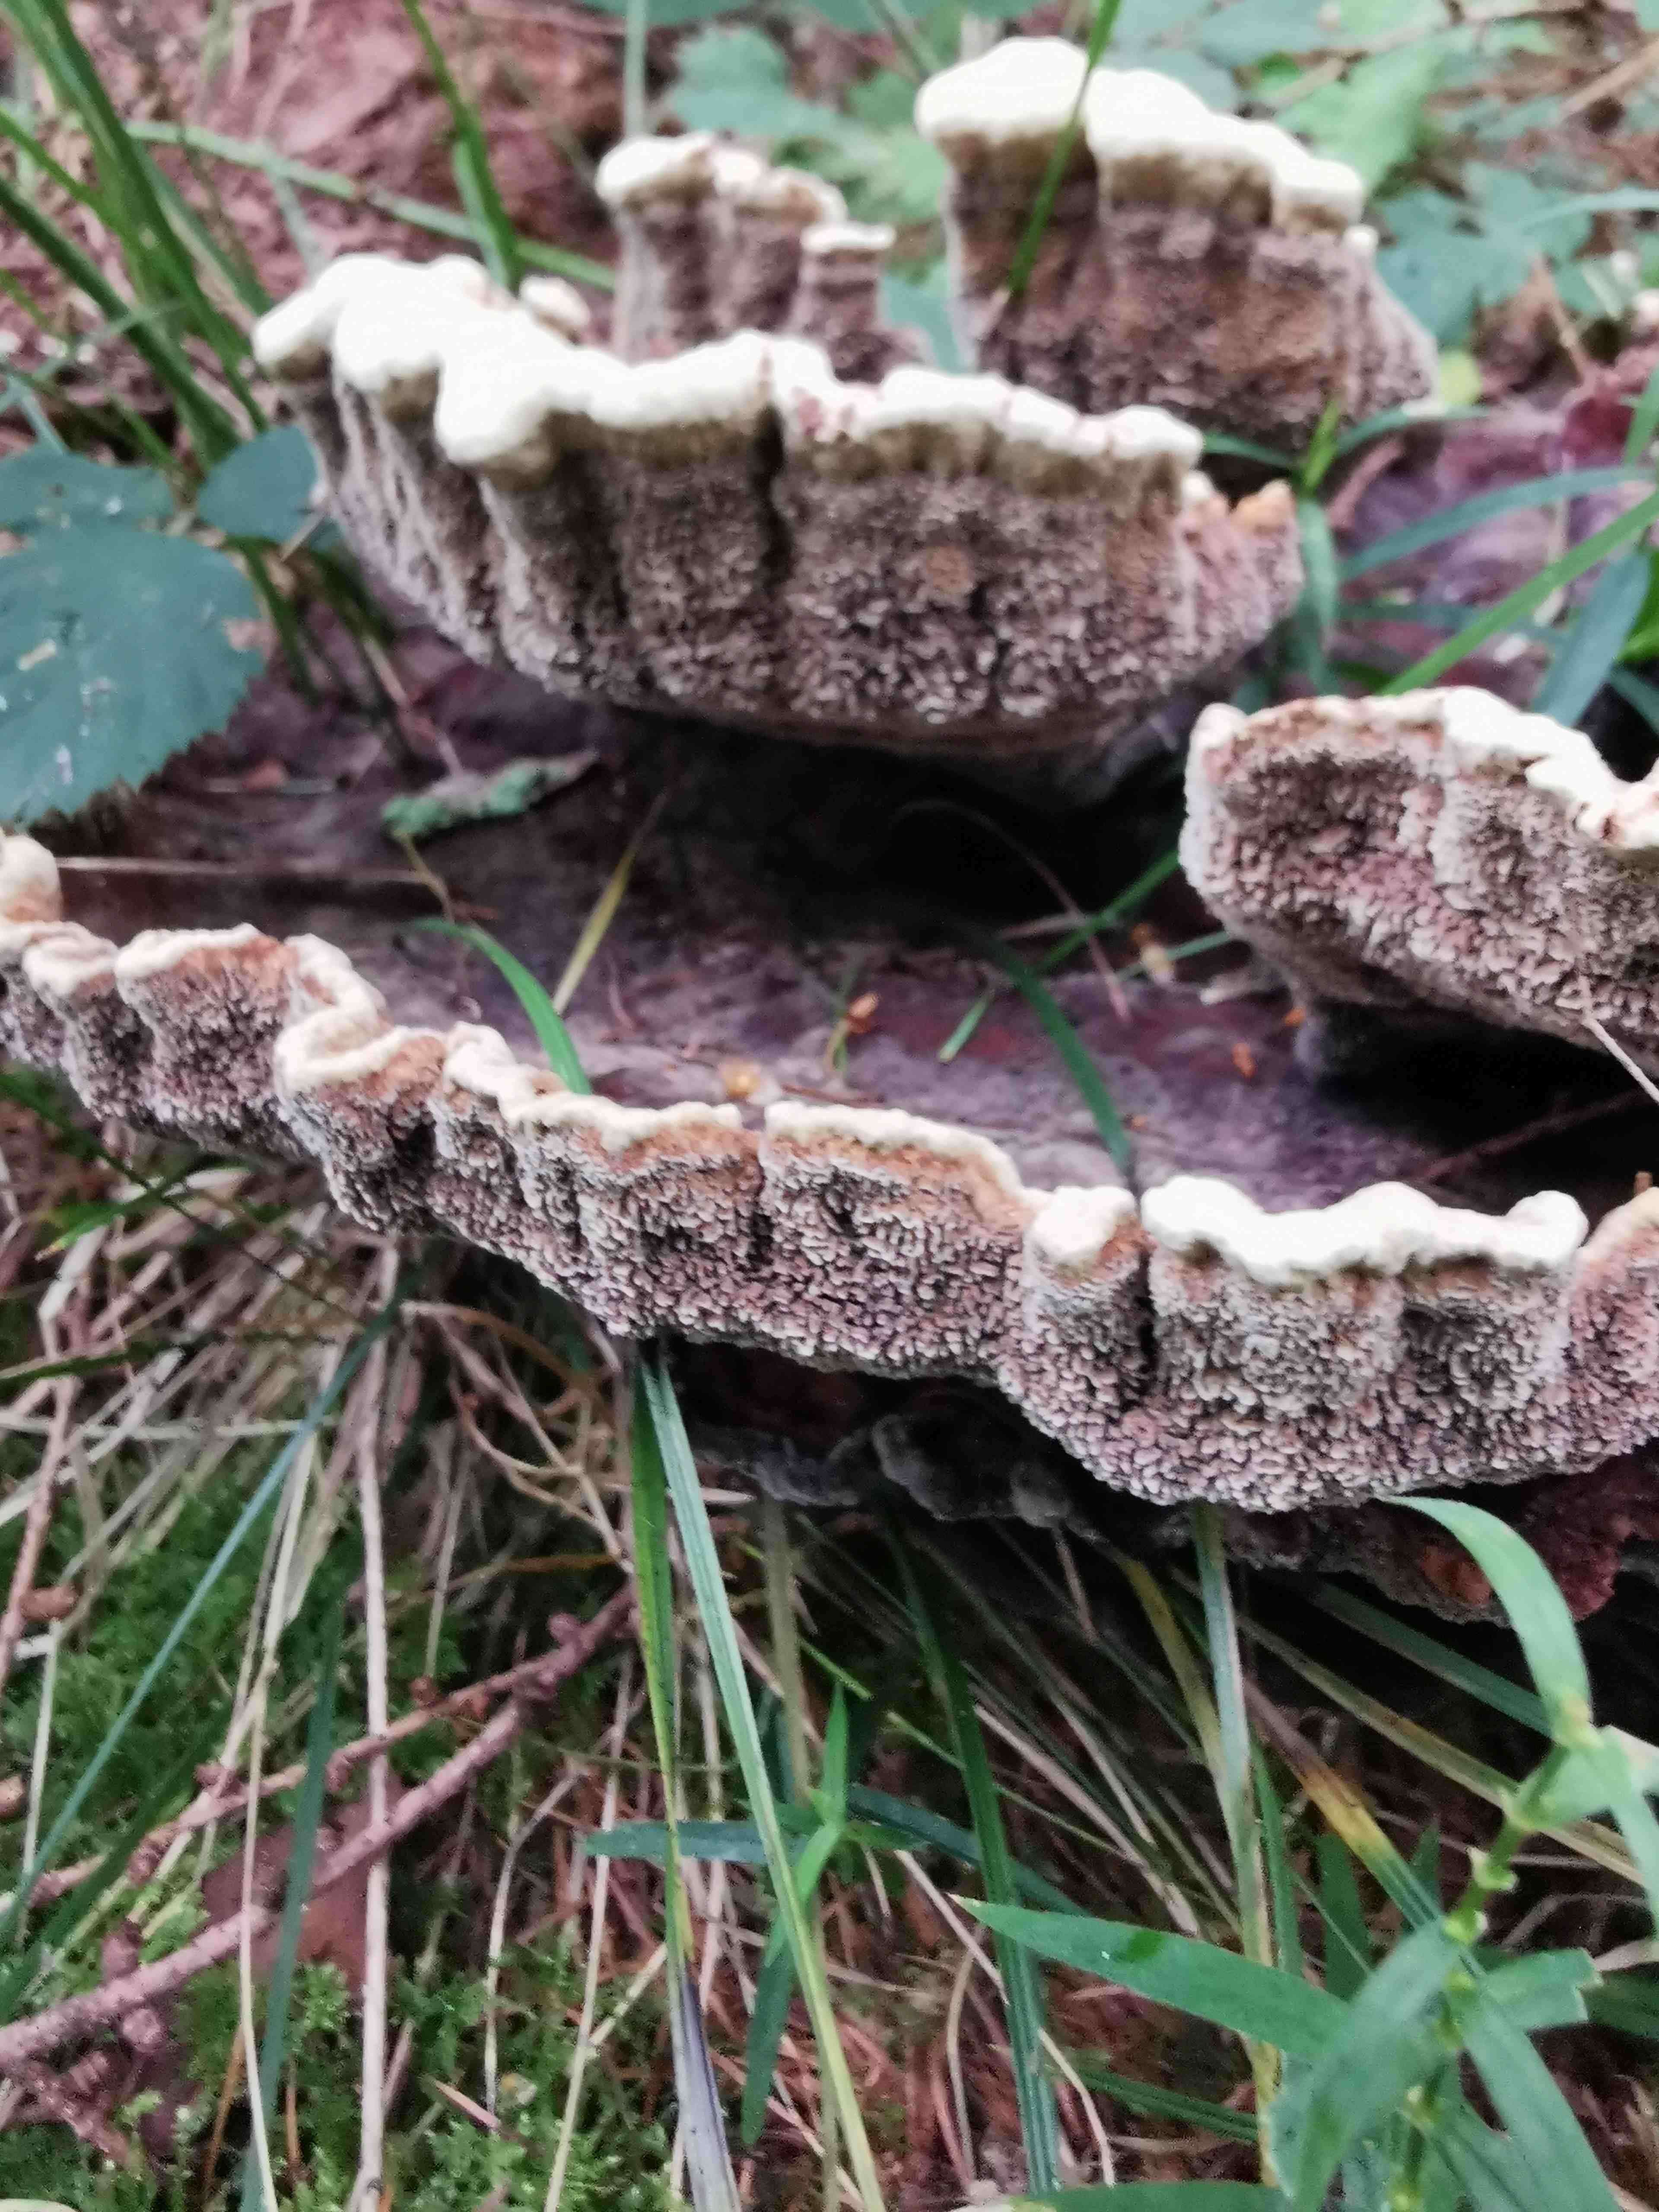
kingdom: Fungi
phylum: Basidiomycota
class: Agaricomycetes
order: Polyporales
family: Laetiporaceae
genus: Phaeolus
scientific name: Phaeolus schweinitzii
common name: brunporesvamp
